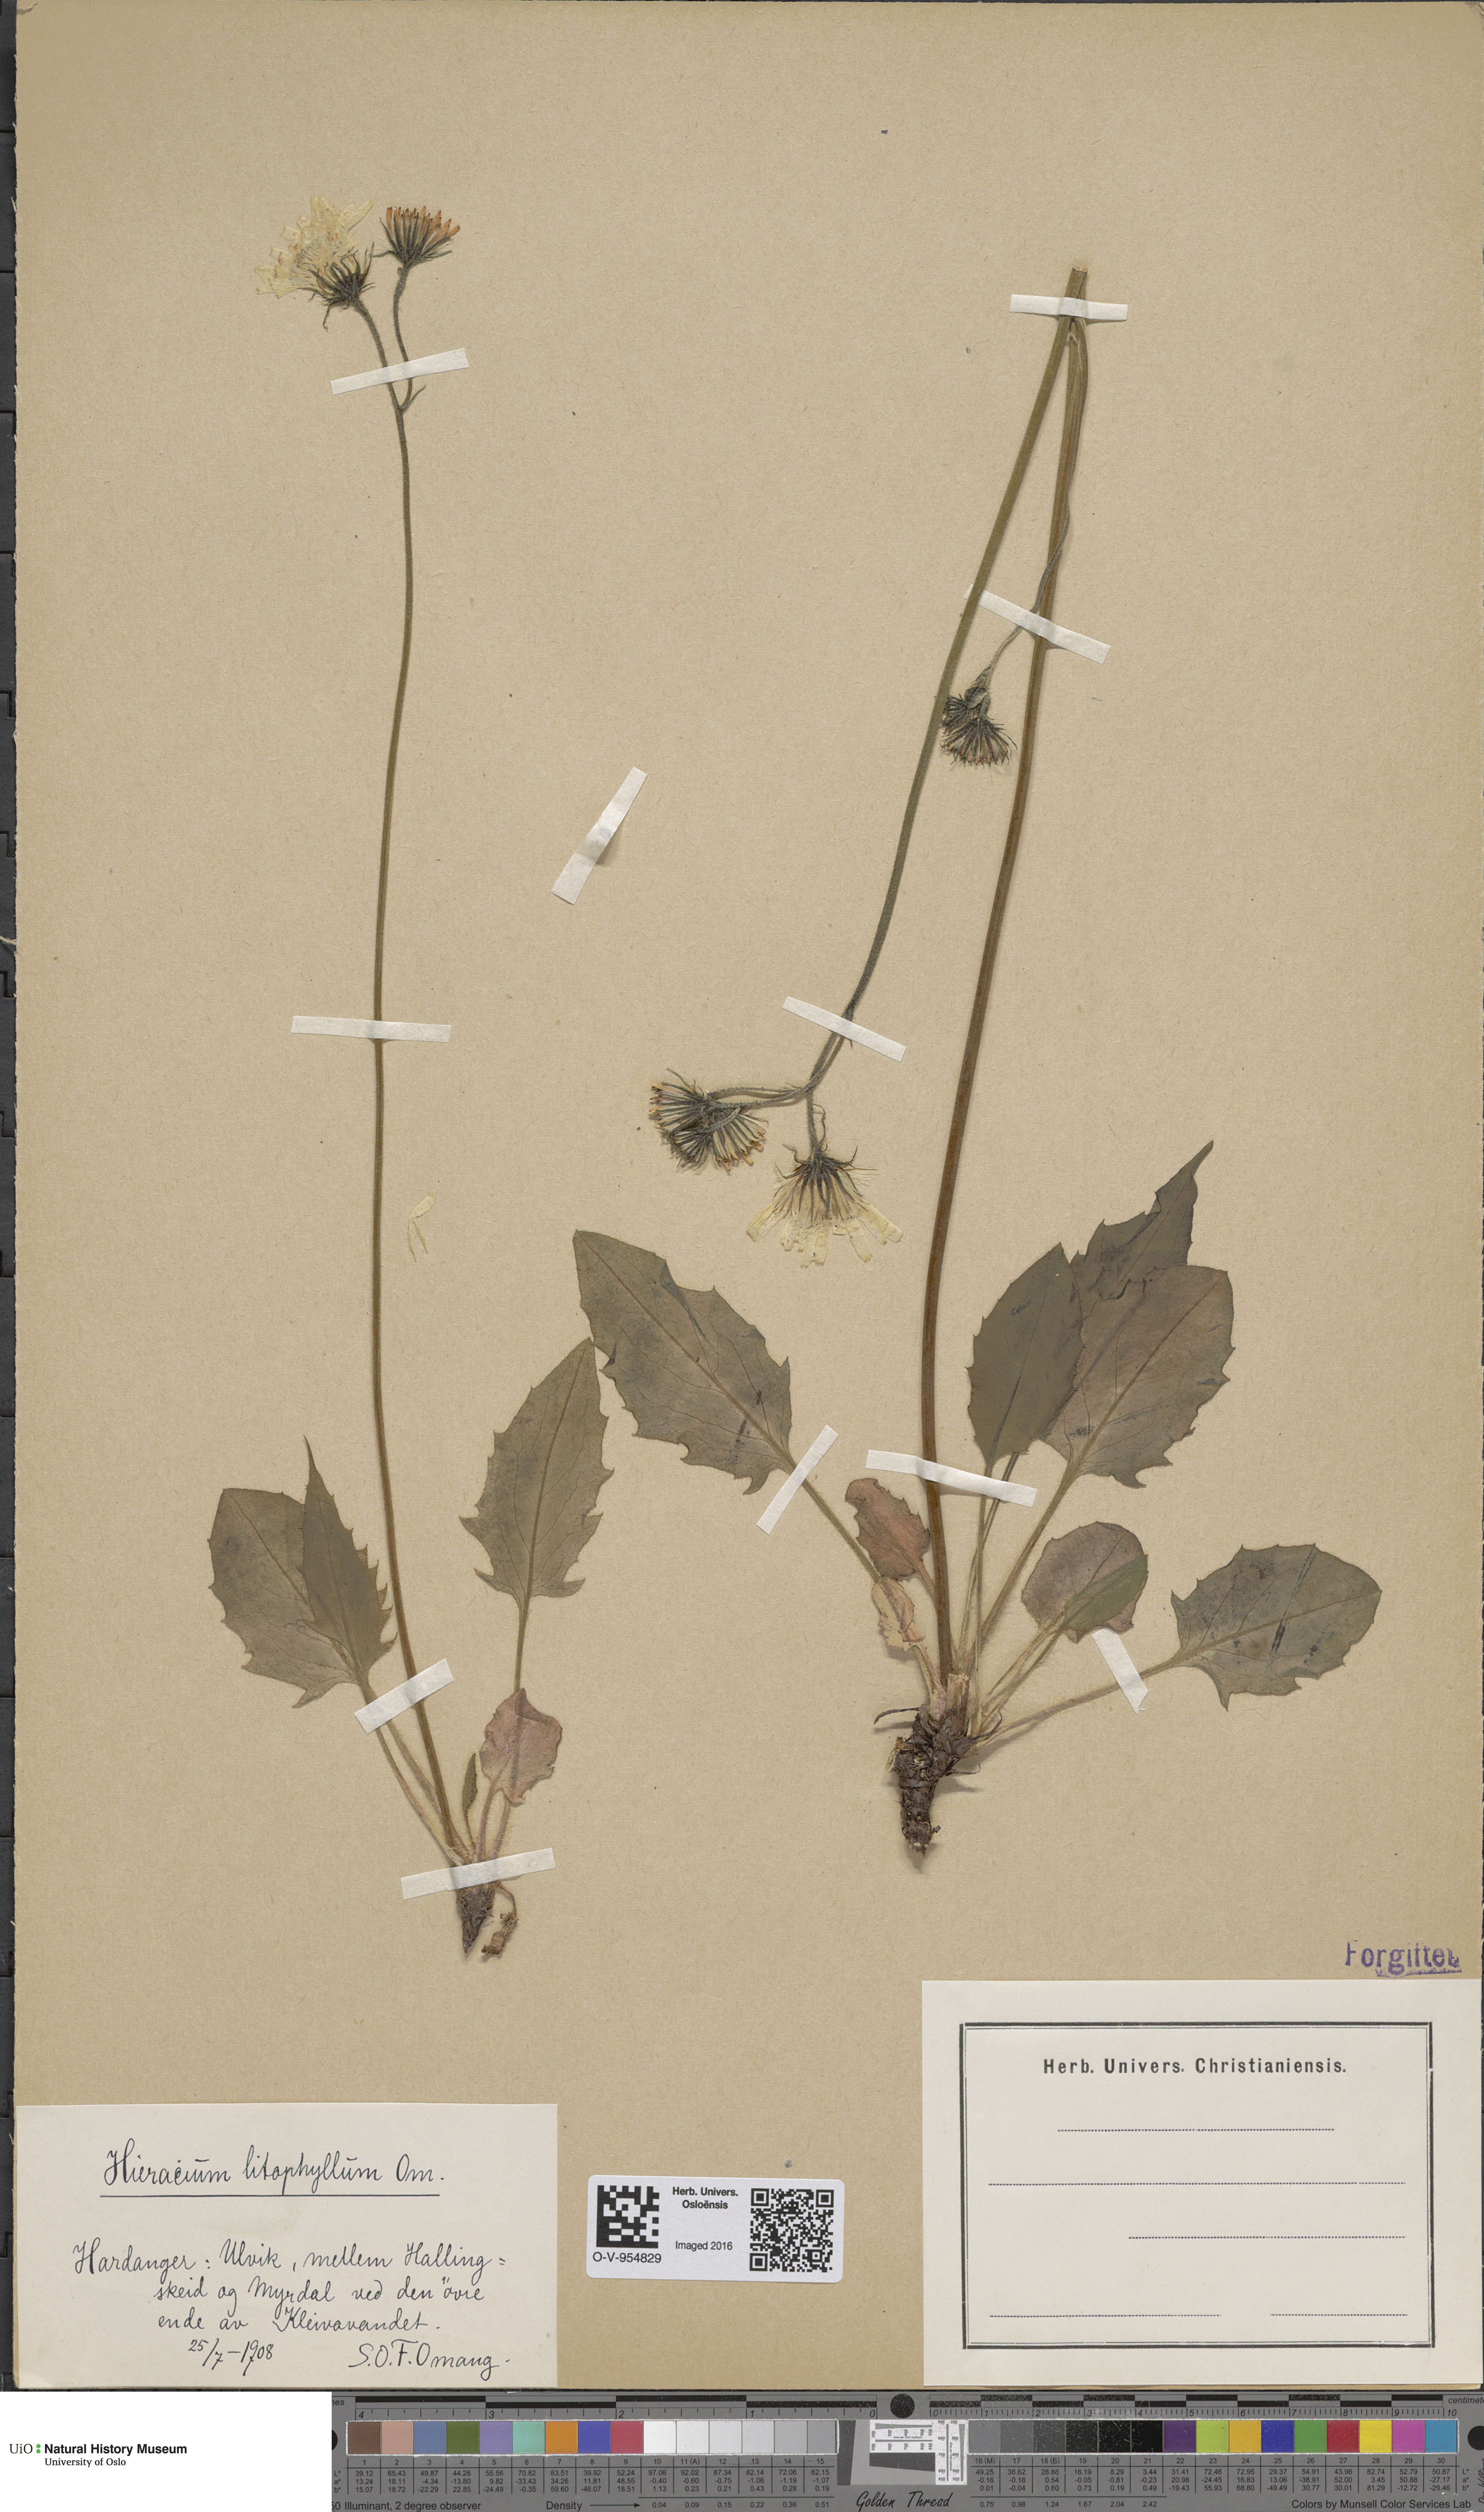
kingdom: Plantae
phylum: Tracheophyta
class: Magnoliopsida
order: Asterales
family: Asteraceae
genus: Hieracium
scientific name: Hieracium
